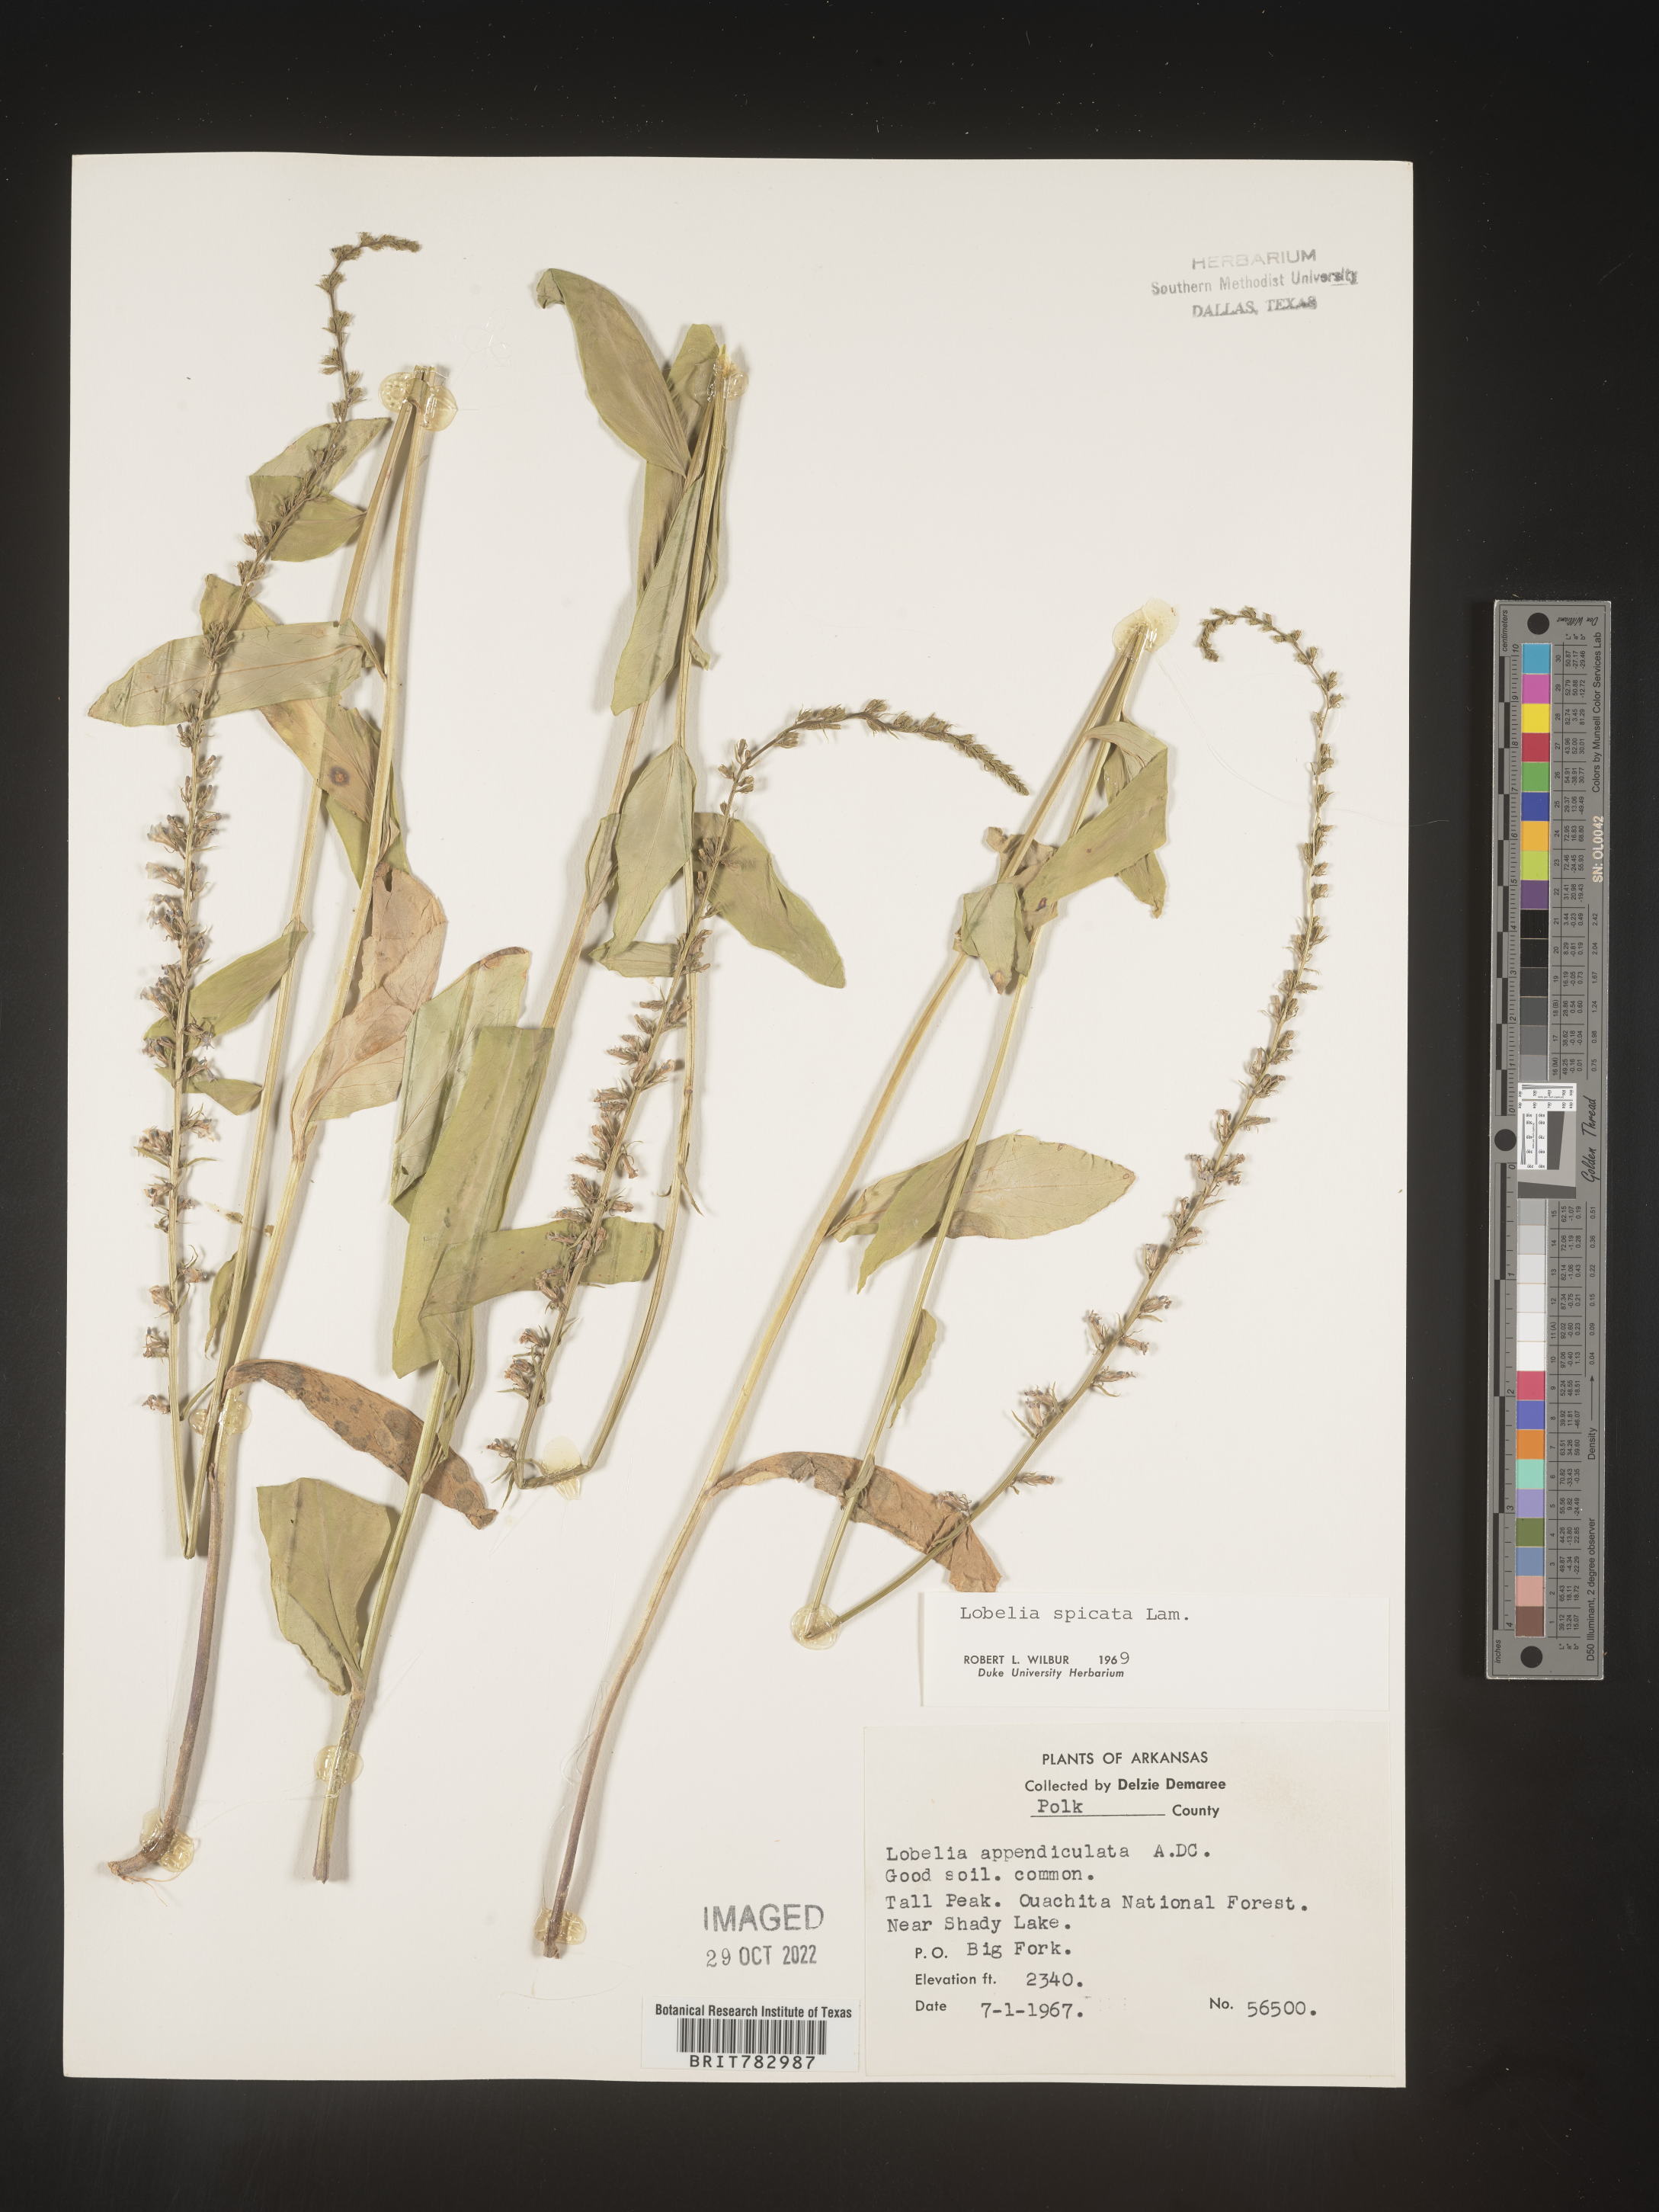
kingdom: Plantae
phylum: Tracheophyta
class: Magnoliopsida
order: Asterales
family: Campanulaceae
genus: Lobelia
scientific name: Lobelia spicata
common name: Pale-spike lobelia
